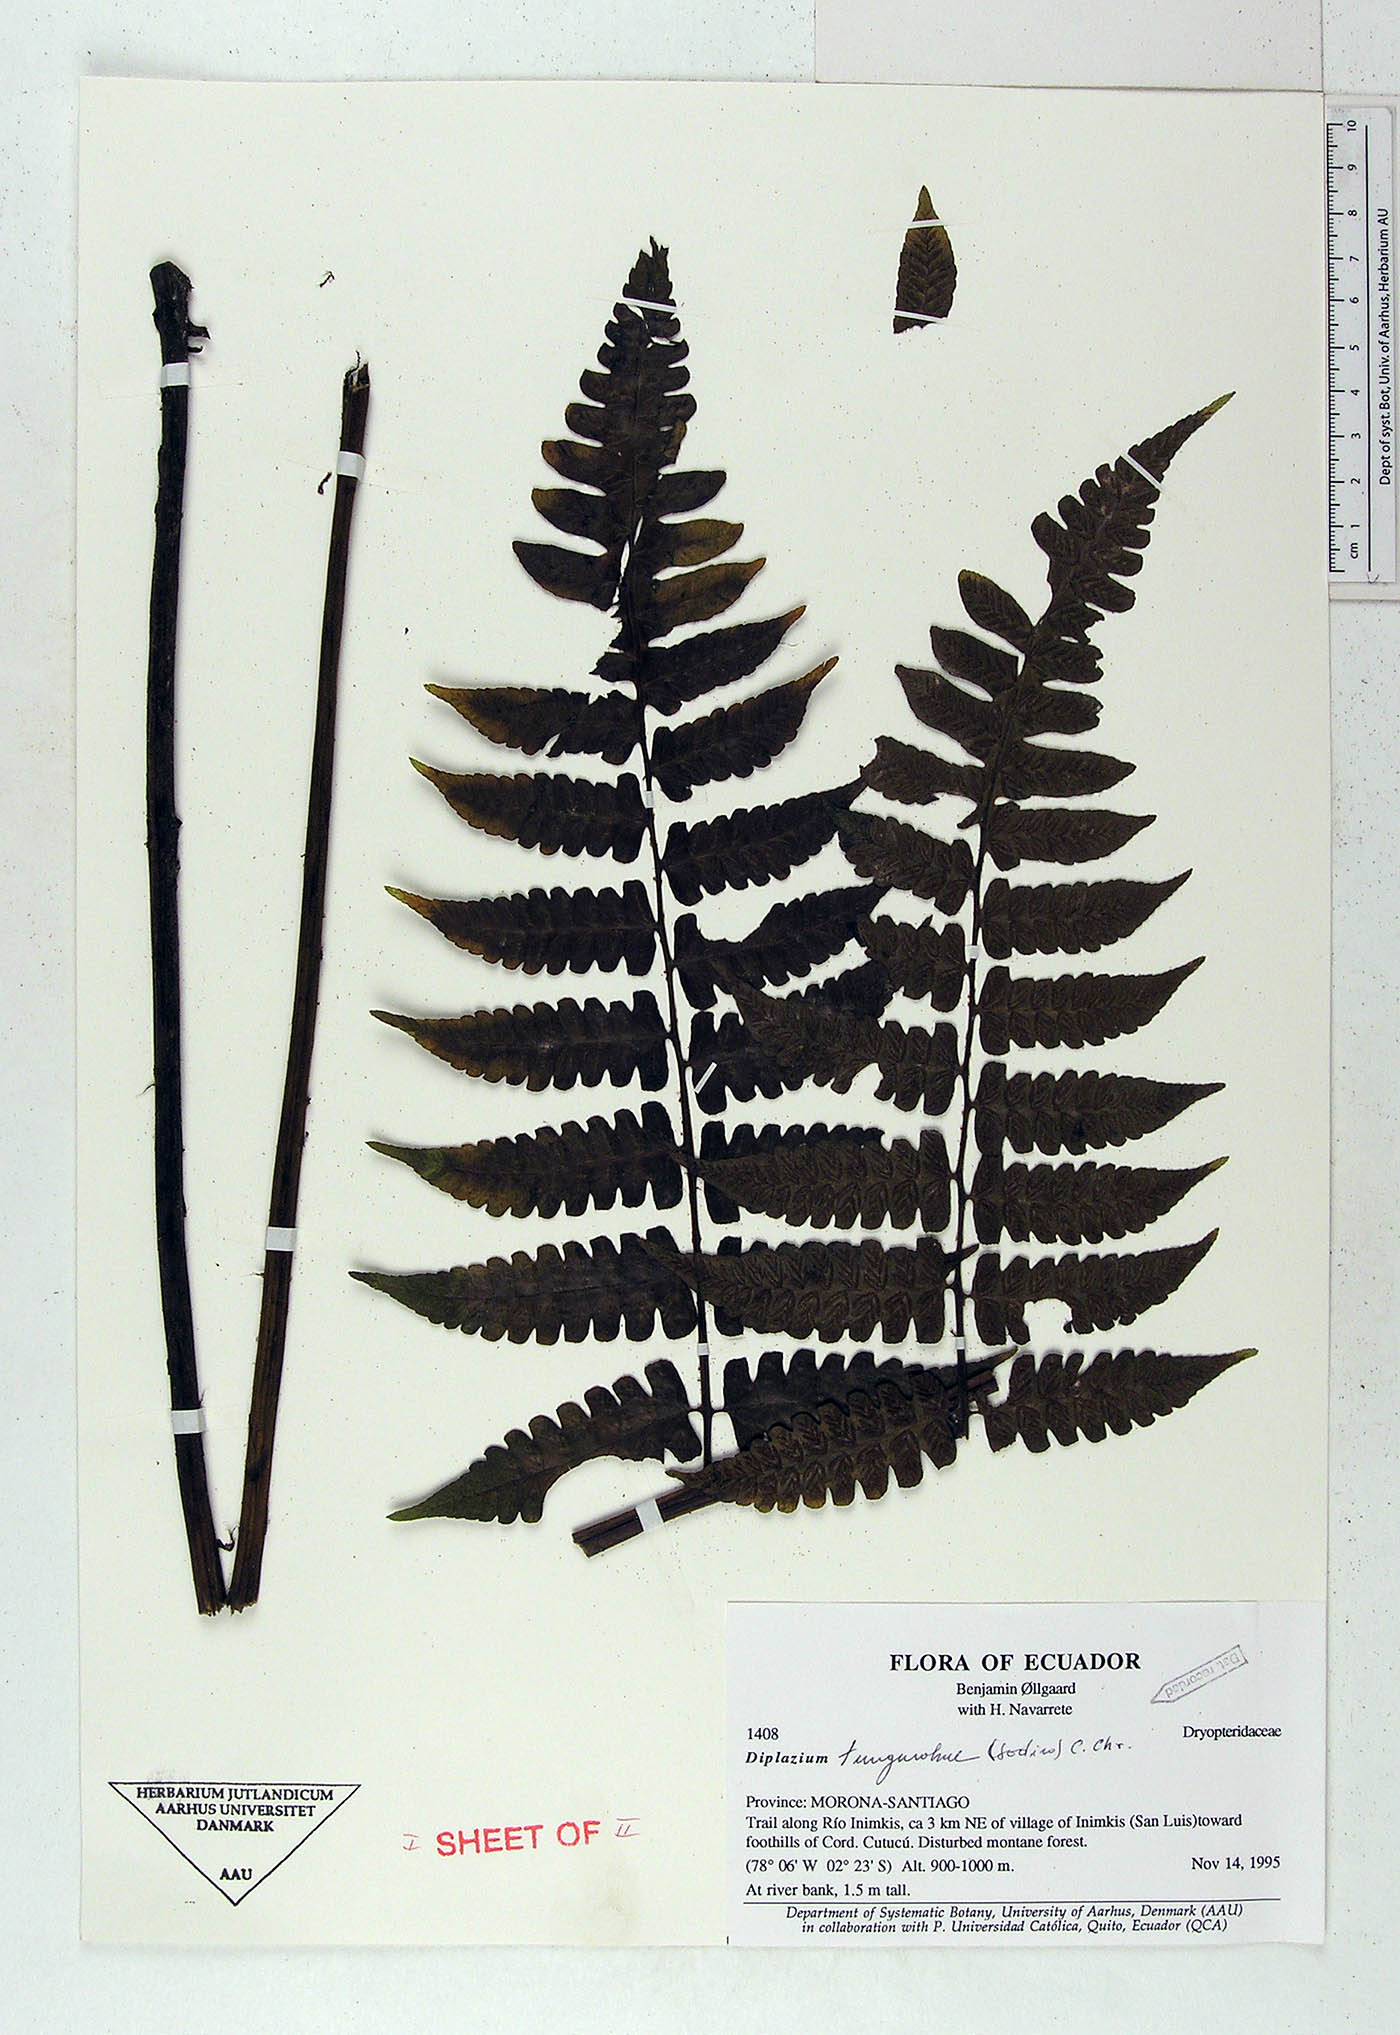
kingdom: Plantae
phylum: Tracheophyta
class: Polypodiopsida
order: Polypodiales
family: Athyriaceae
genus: Diplazium
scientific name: Diplazium tungurahuae
